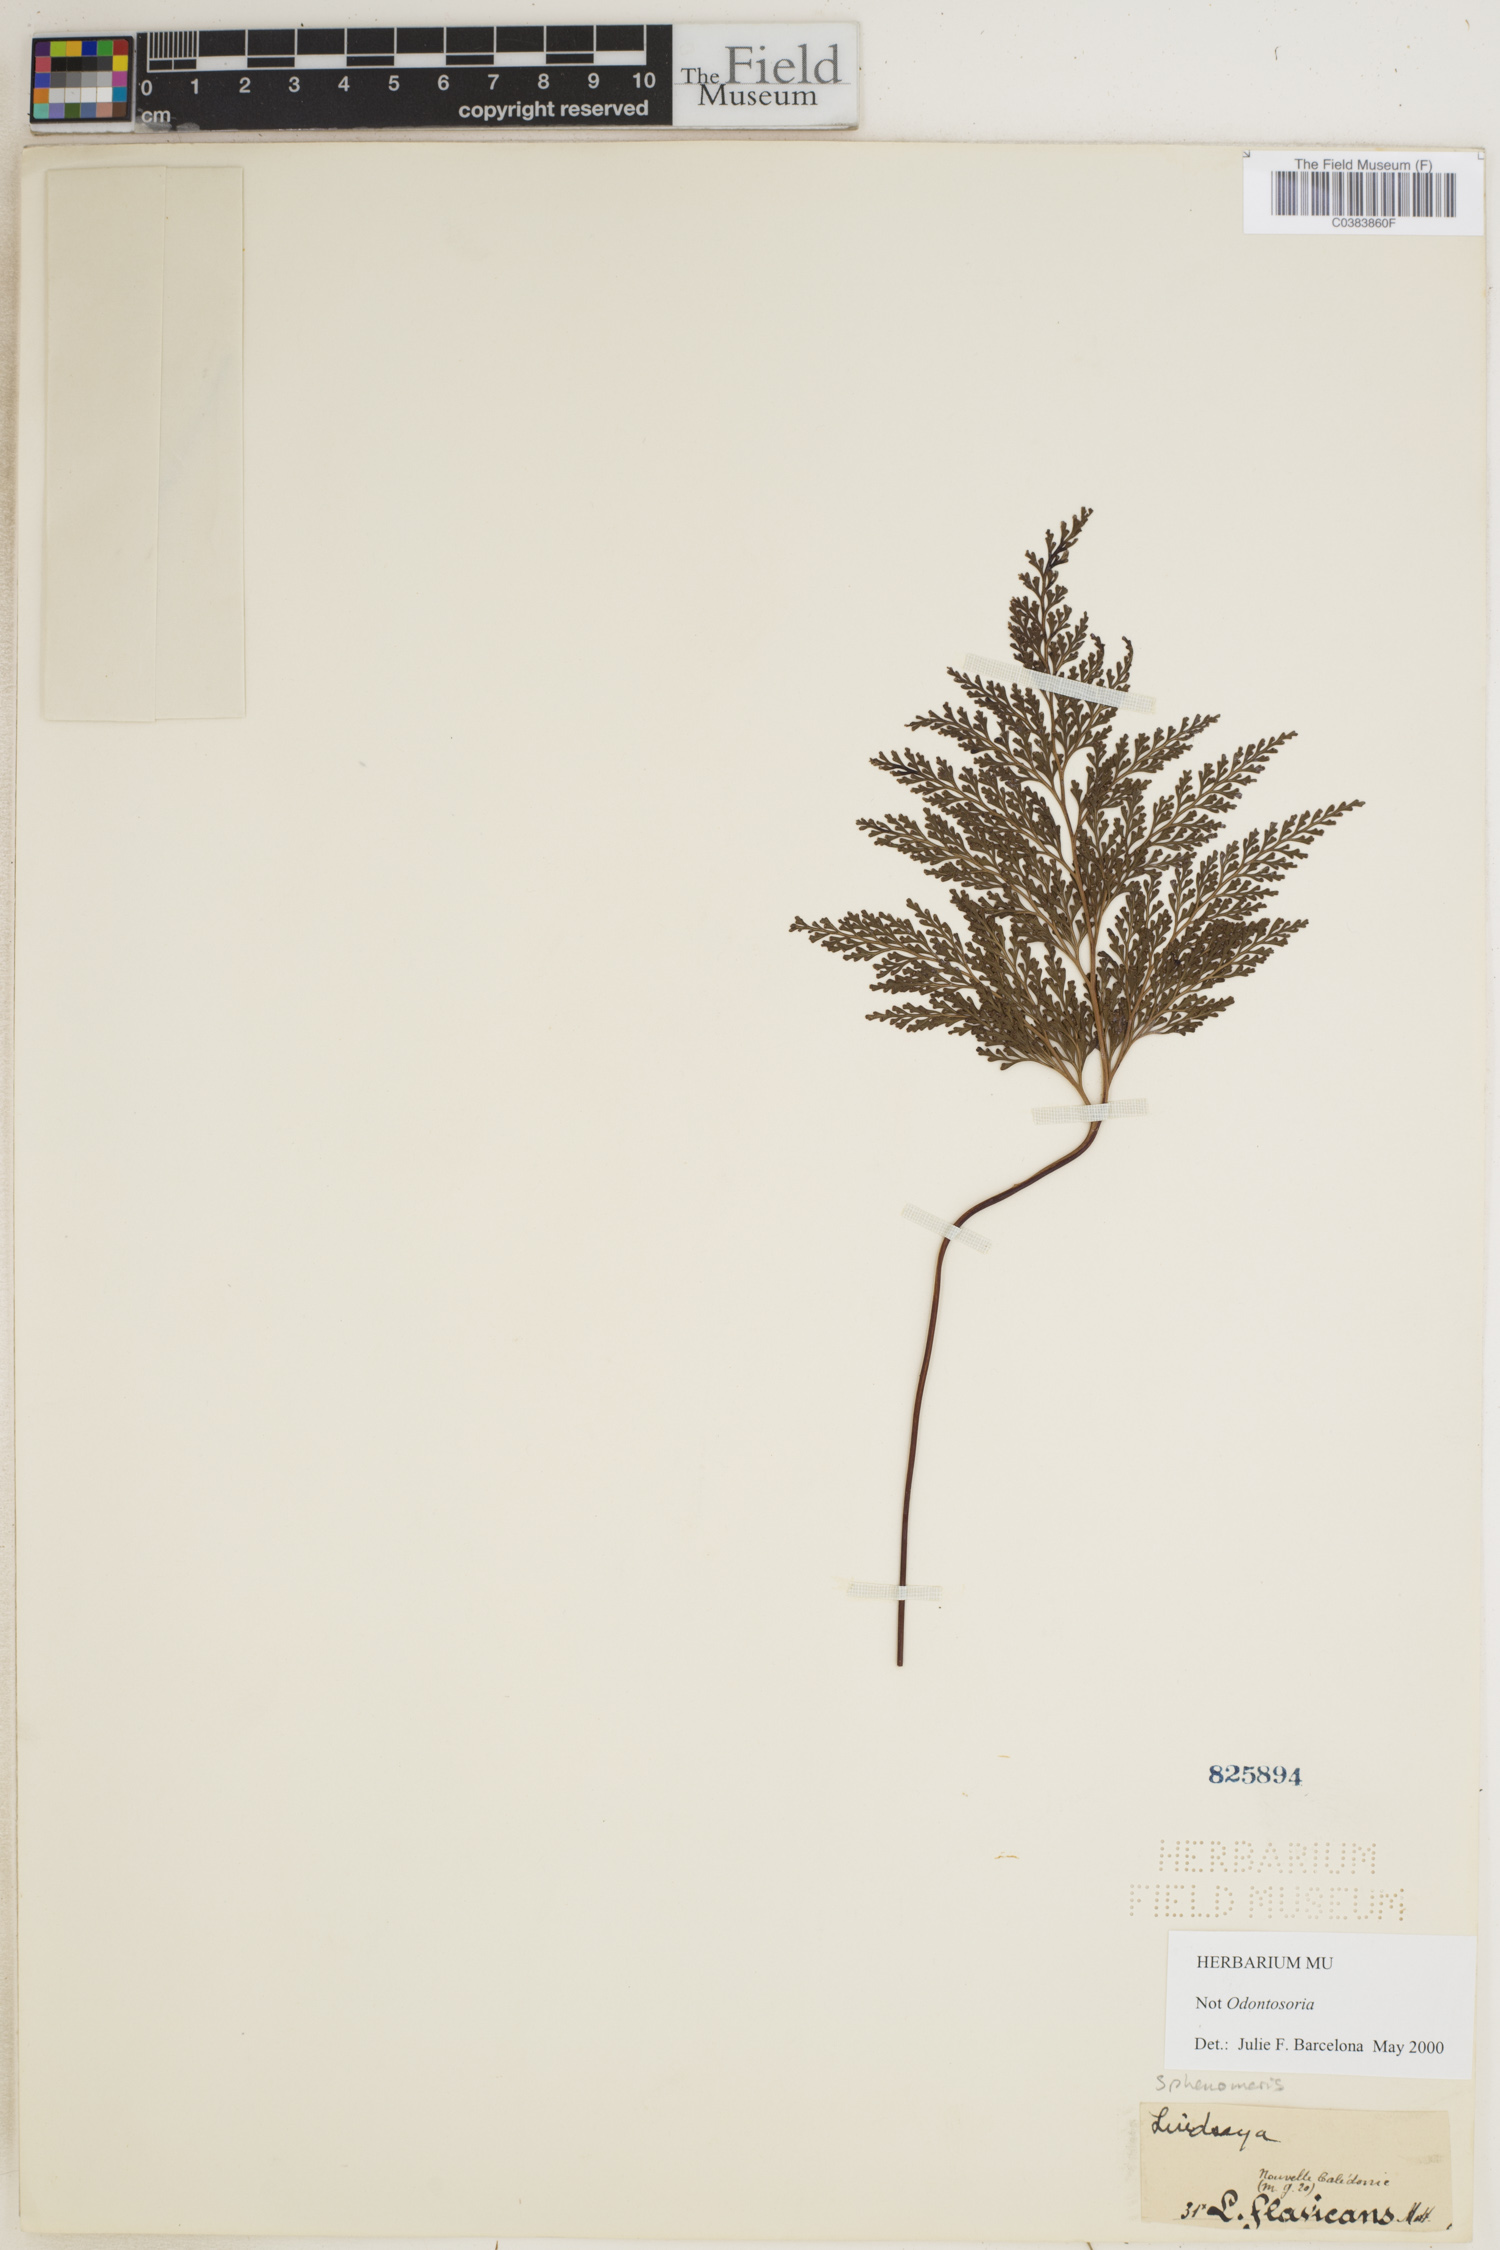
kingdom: Plantae
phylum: Tracheophyta
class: Polypodiopsida
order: Polypodiales
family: Lindsaeaceae
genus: Sphenomeris
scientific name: Sphenomeris
